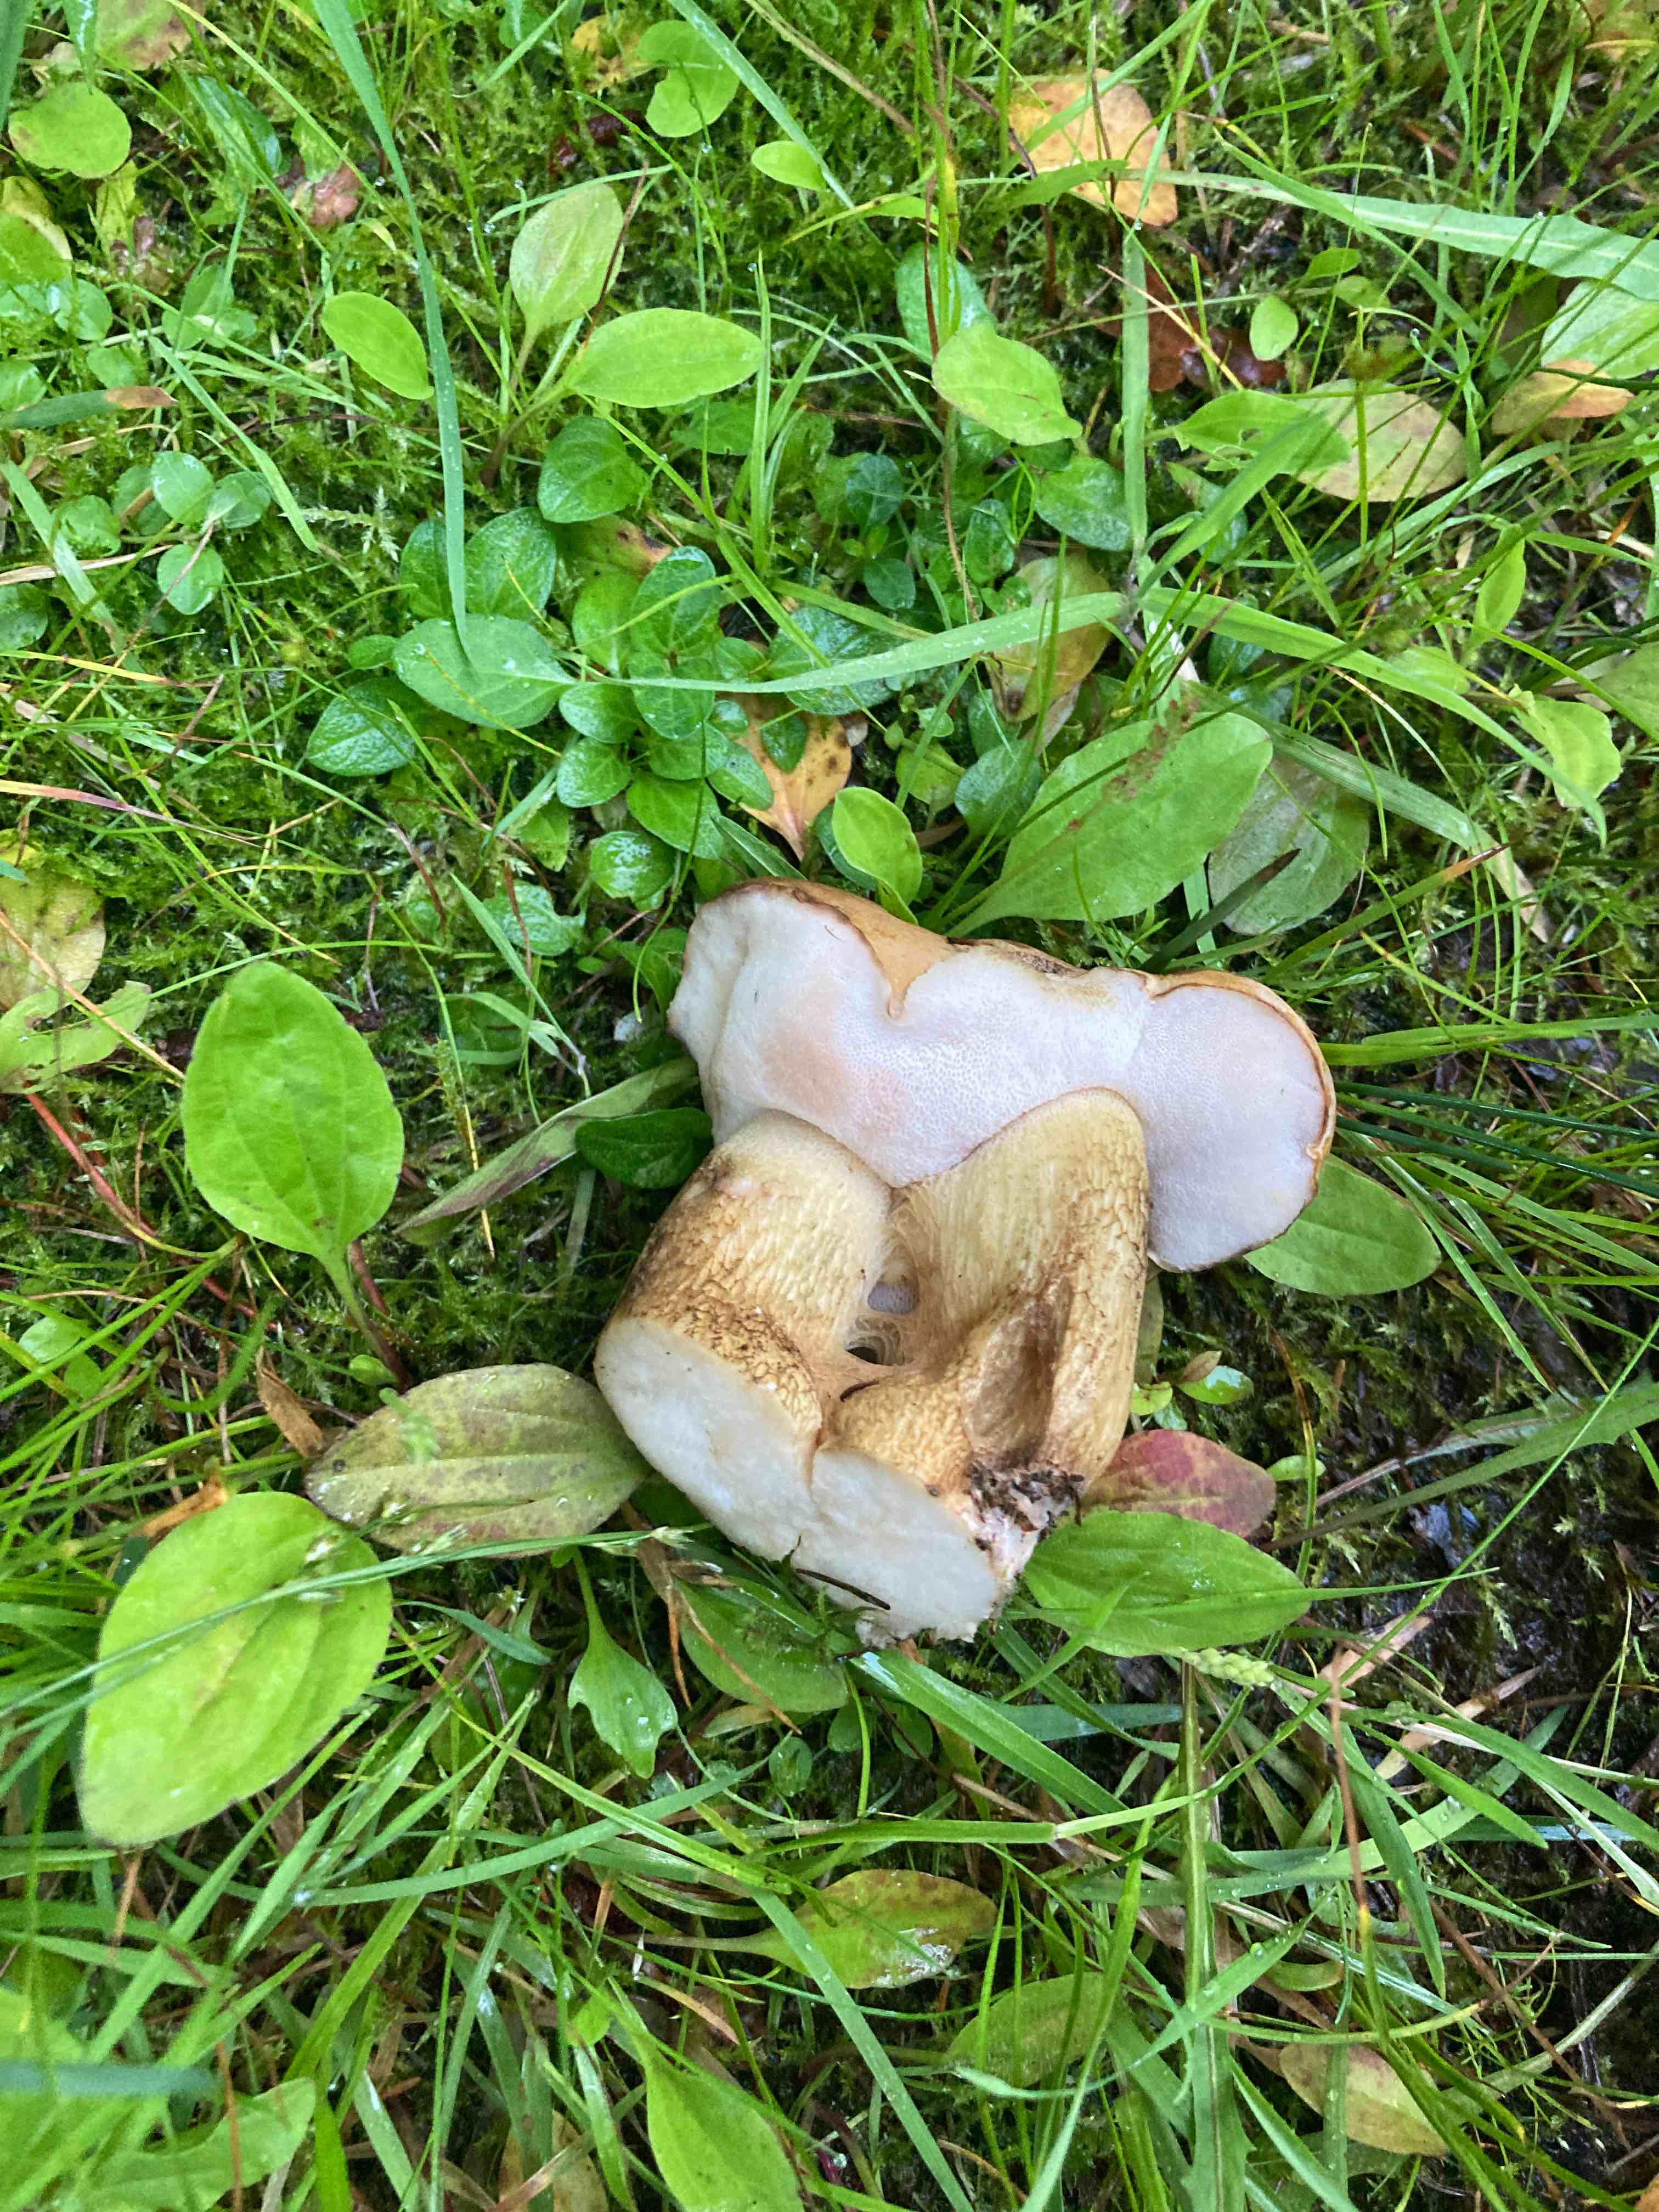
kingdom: Fungi
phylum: Basidiomycota
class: Agaricomycetes
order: Boletales
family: Boletaceae
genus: Tylopilus
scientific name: Tylopilus felleus
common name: galderørhat
